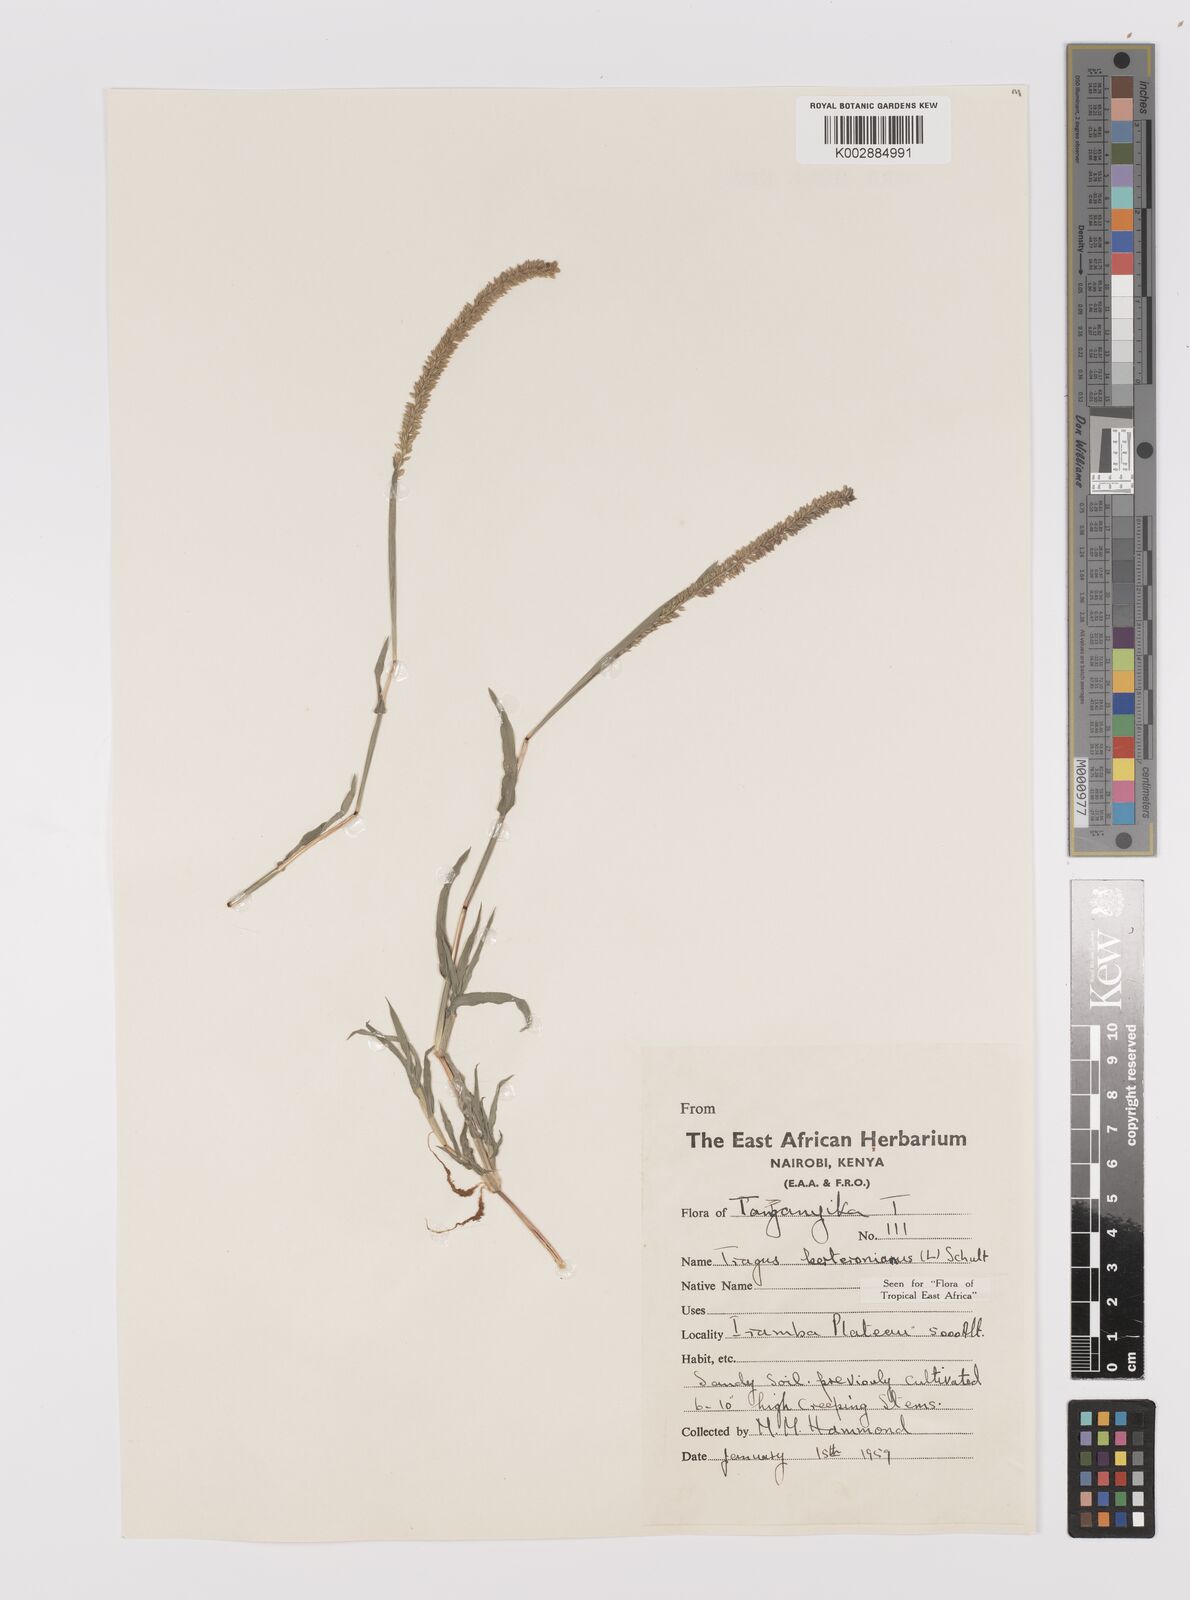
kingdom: Plantae
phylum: Tracheophyta
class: Liliopsida
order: Poales
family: Poaceae
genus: Tragus
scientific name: Tragus berteronianus
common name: African bur-grass
